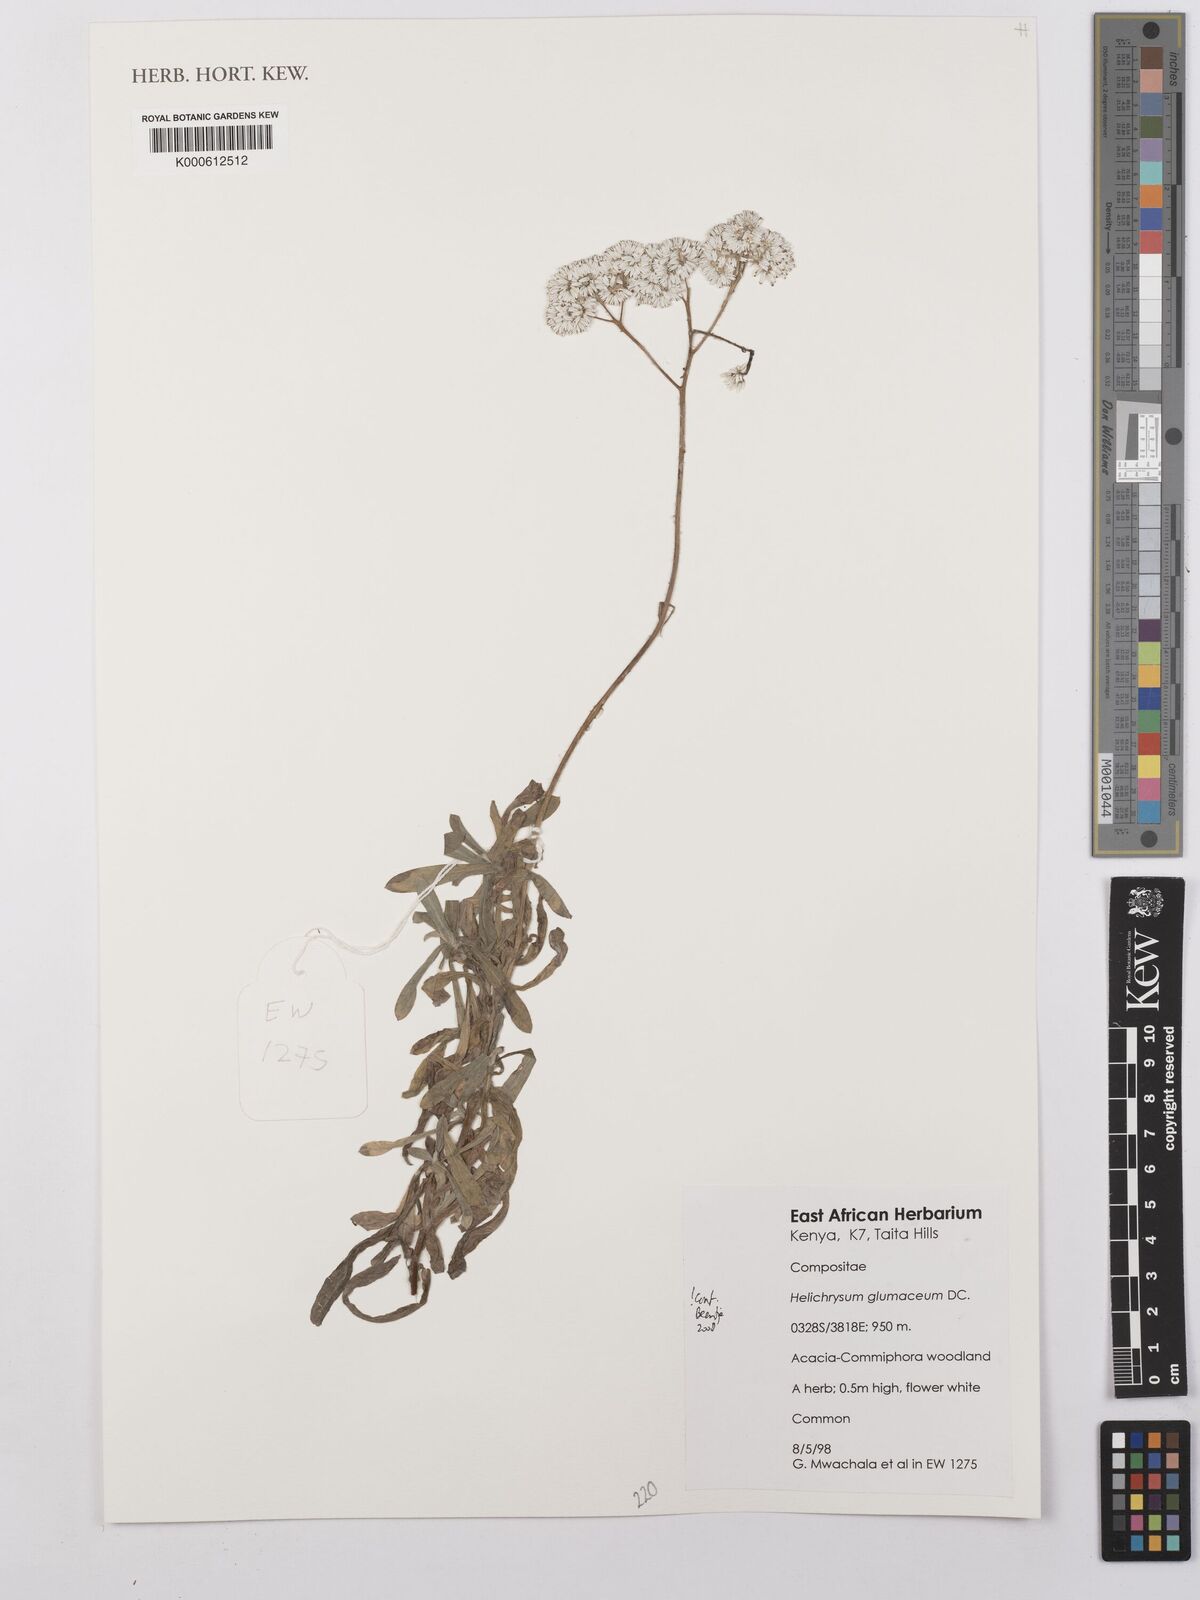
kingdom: Plantae
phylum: Tracheophyta
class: Magnoliopsida
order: Asterales
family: Asteraceae
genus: Helichrysum
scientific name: Helichrysum glumaceum
